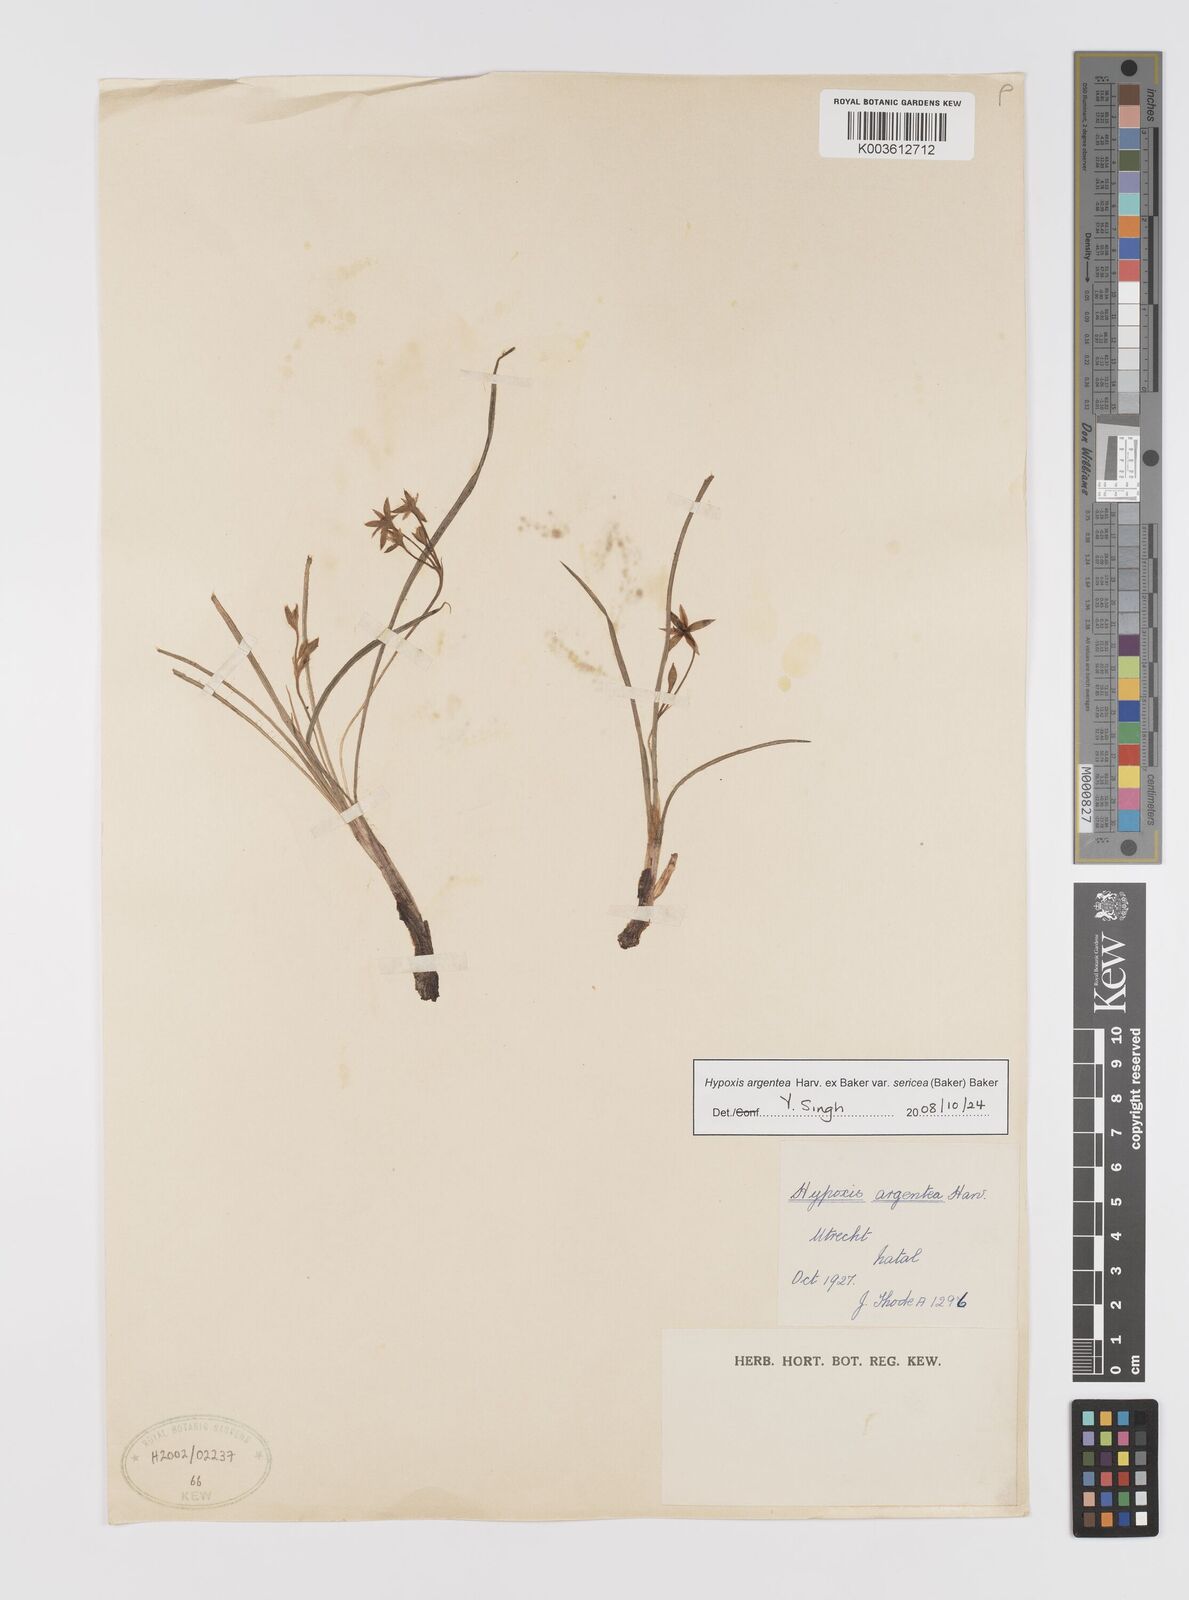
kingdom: Plantae
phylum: Tracheophyta
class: Liliopsida
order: Asparagales
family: Hypoxidaceae
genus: Hypoxis
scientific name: Hypoxis argentea
